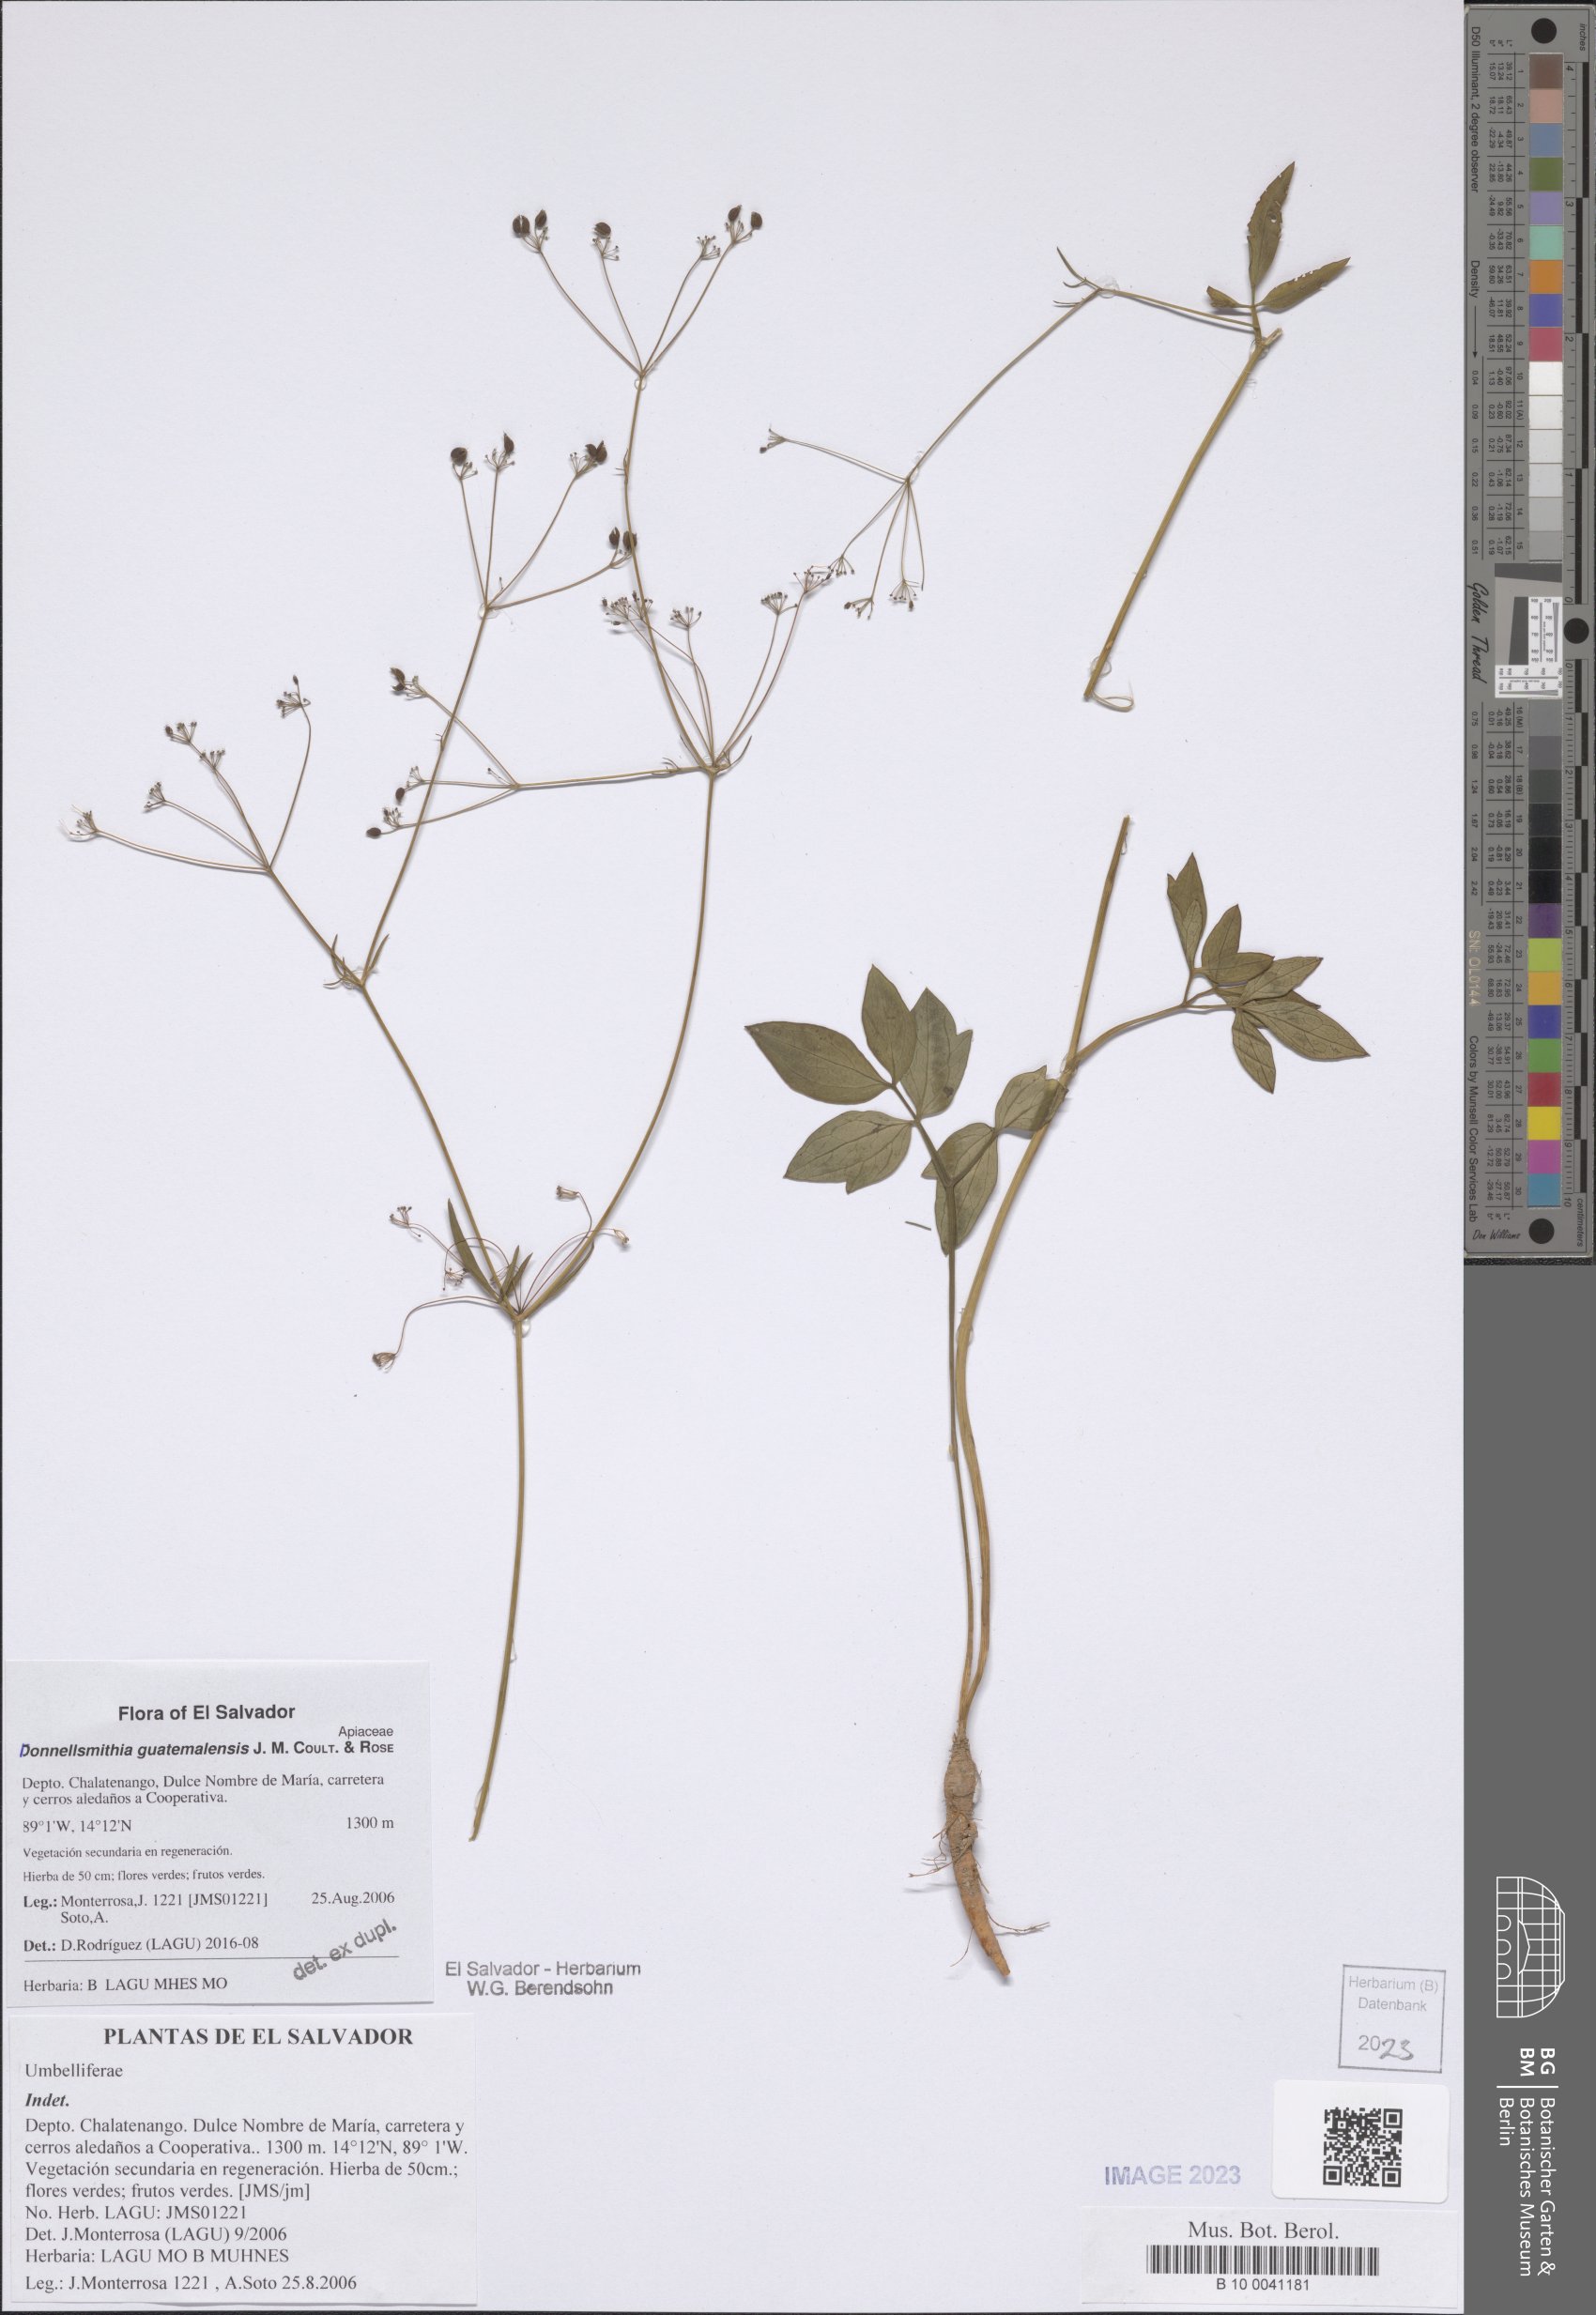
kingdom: Plantae
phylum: Tracheophyta
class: Magnoliopsida
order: Apiales
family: Apiaceae
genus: Donnellsmithia
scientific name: Donnellsmithia guatemalensis
